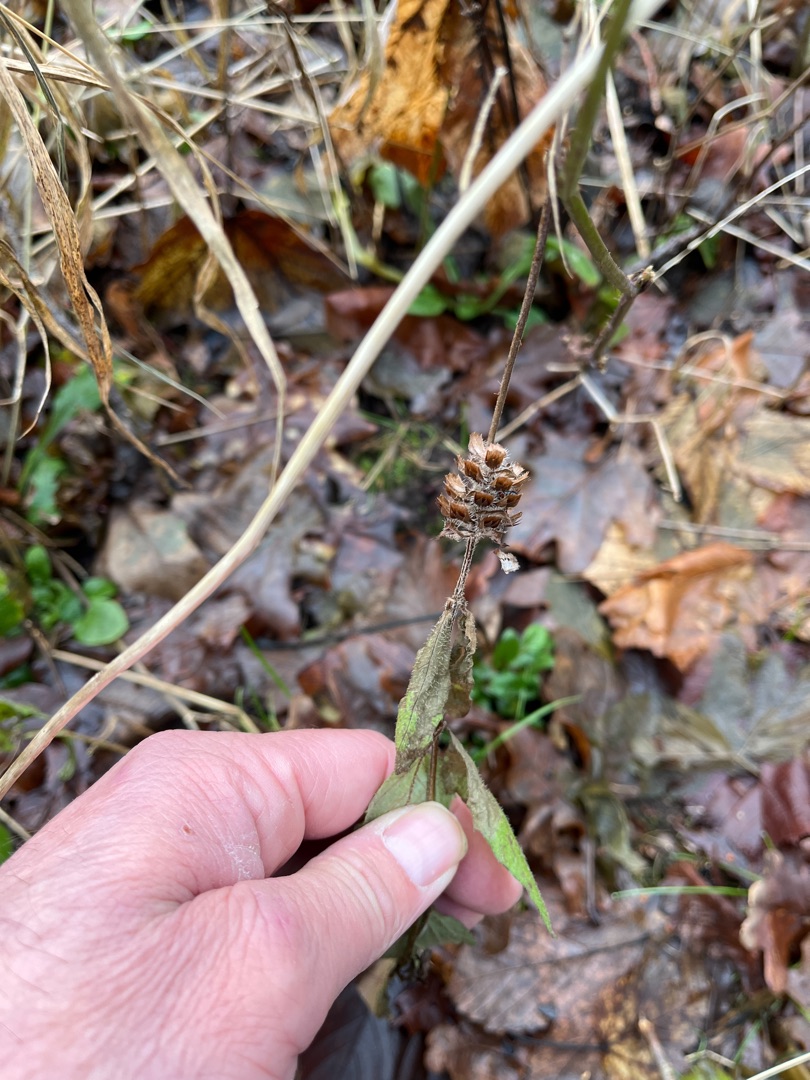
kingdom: Plantae
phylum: Tracheophyta
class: Magnoliopsida
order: Lamiales
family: Lamiaceae
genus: Prunella
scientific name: Prunella vulgaris
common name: Almindelig brunelle
